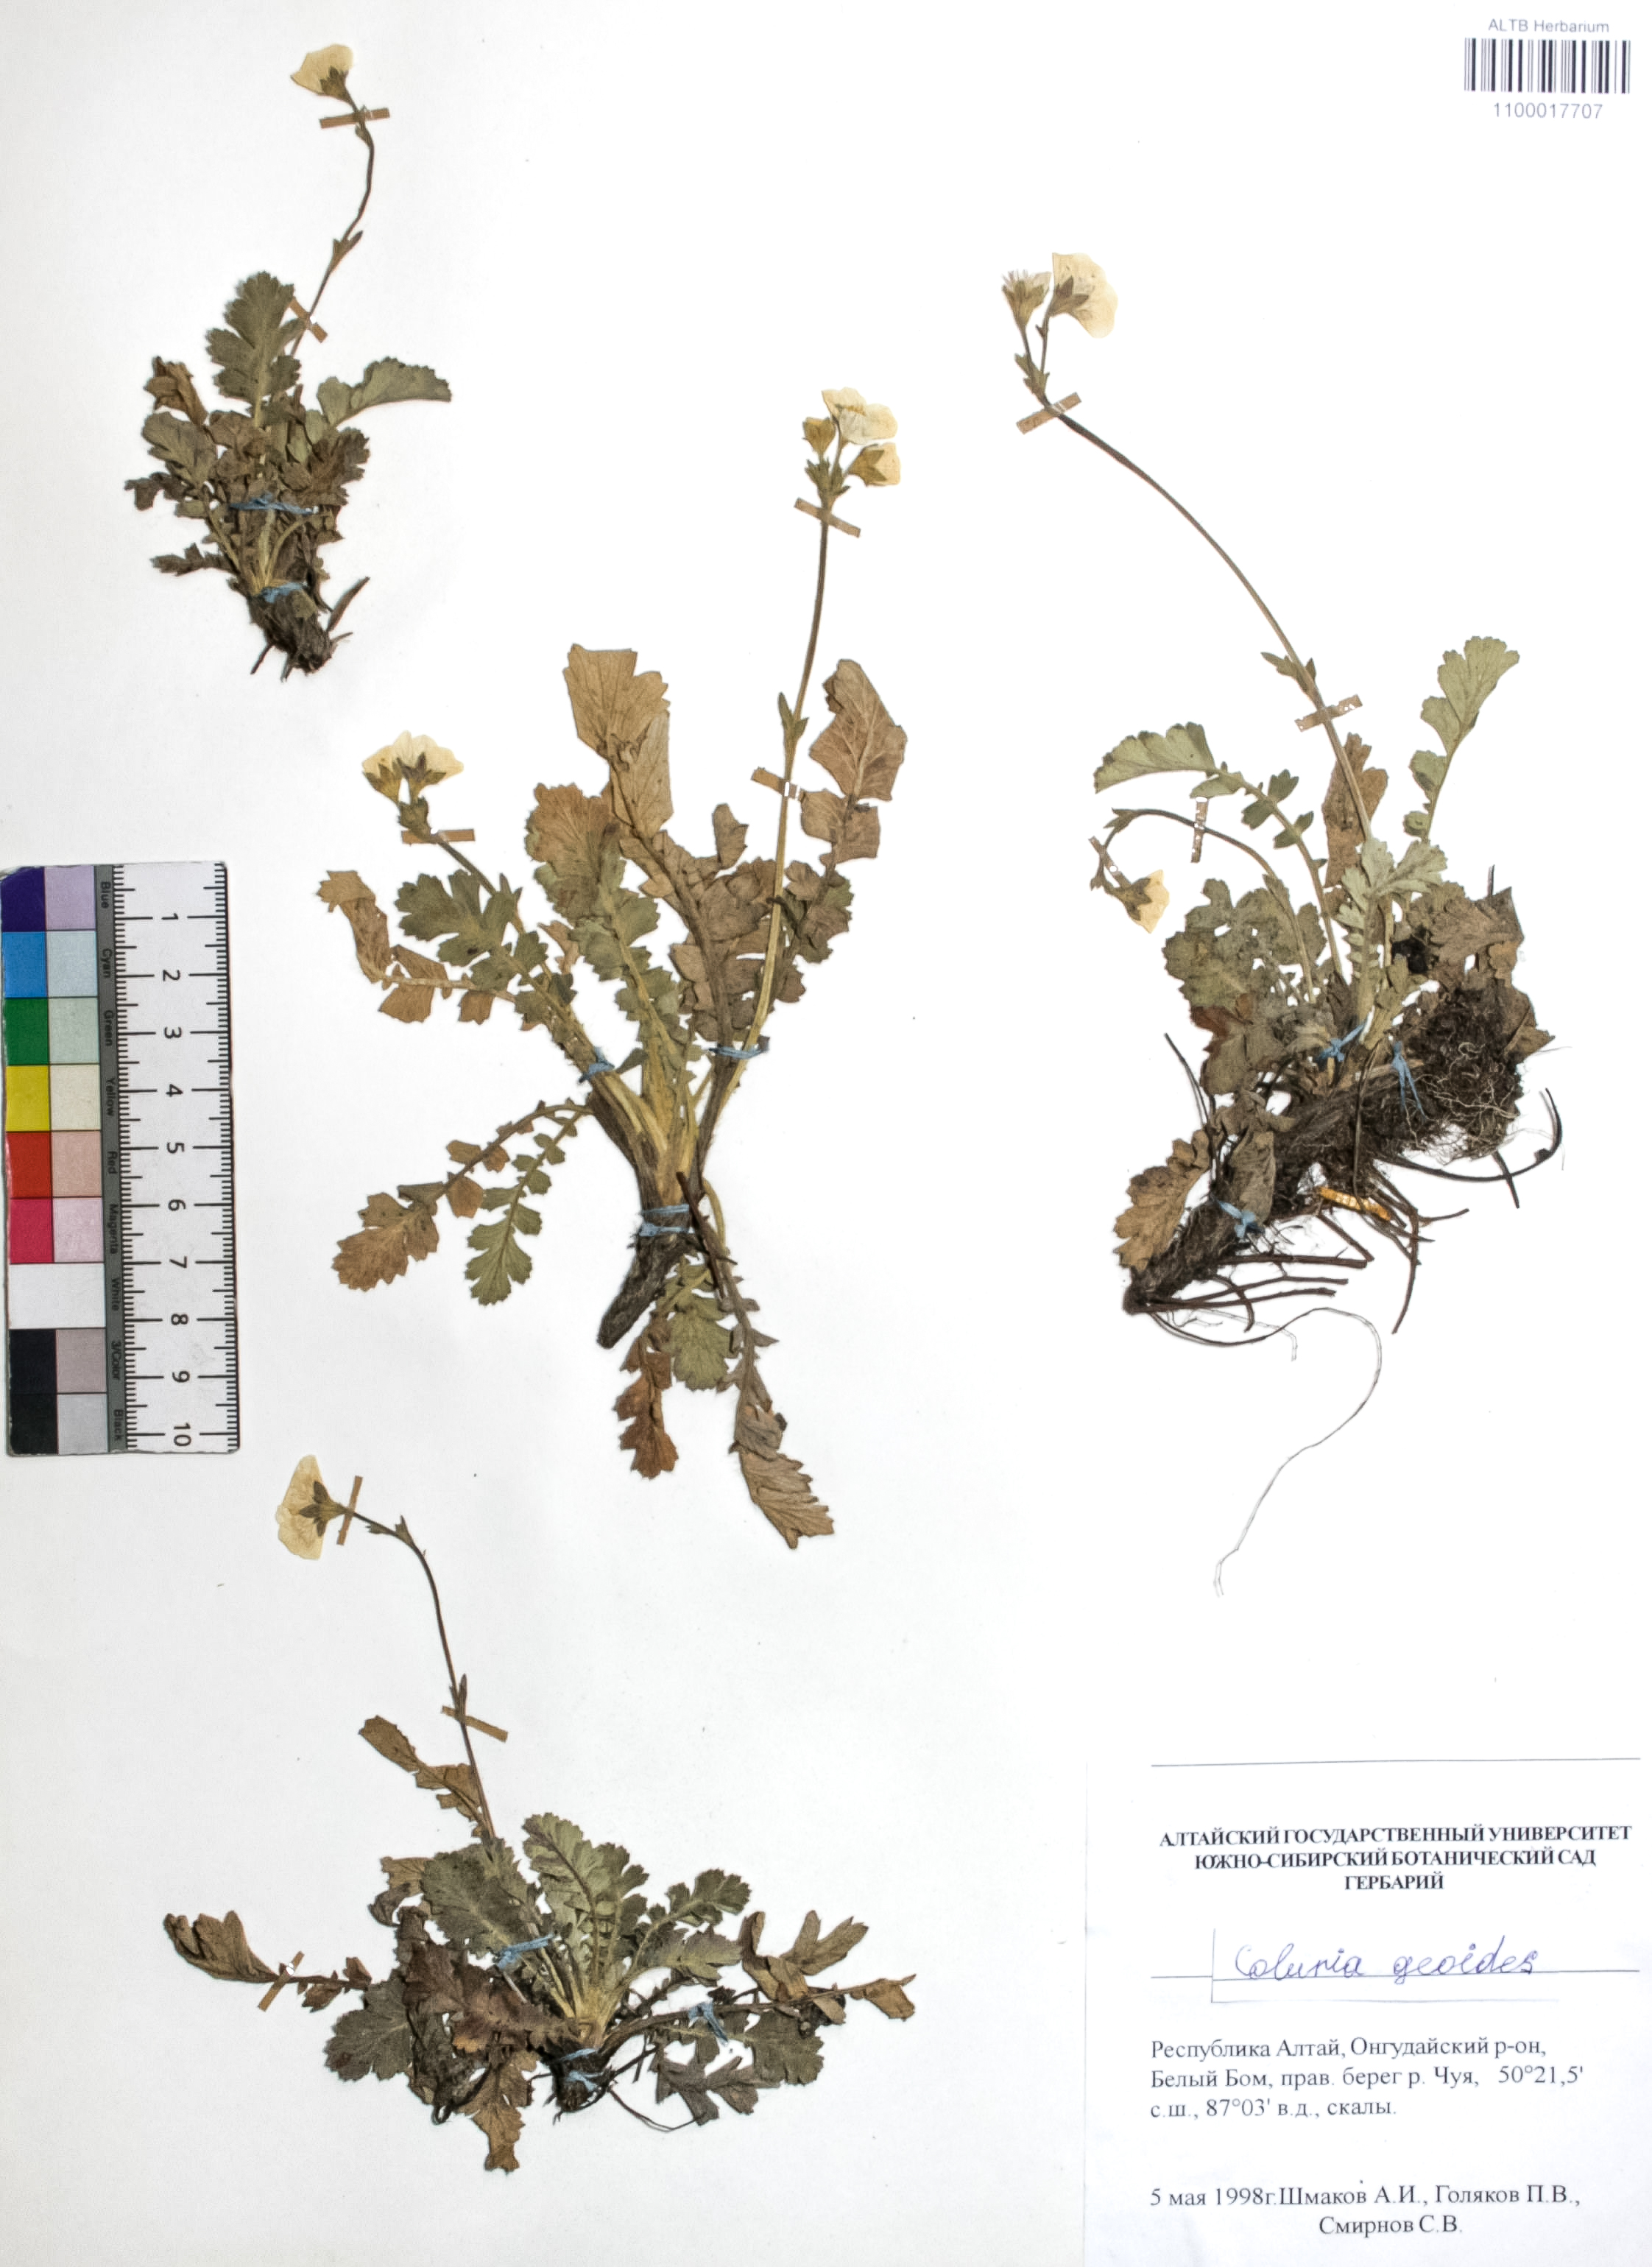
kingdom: Plantae
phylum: Tracheophyta
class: Magnoliopsida
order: Rosales
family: Rosaceae
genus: Geum
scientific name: Geum geoides
